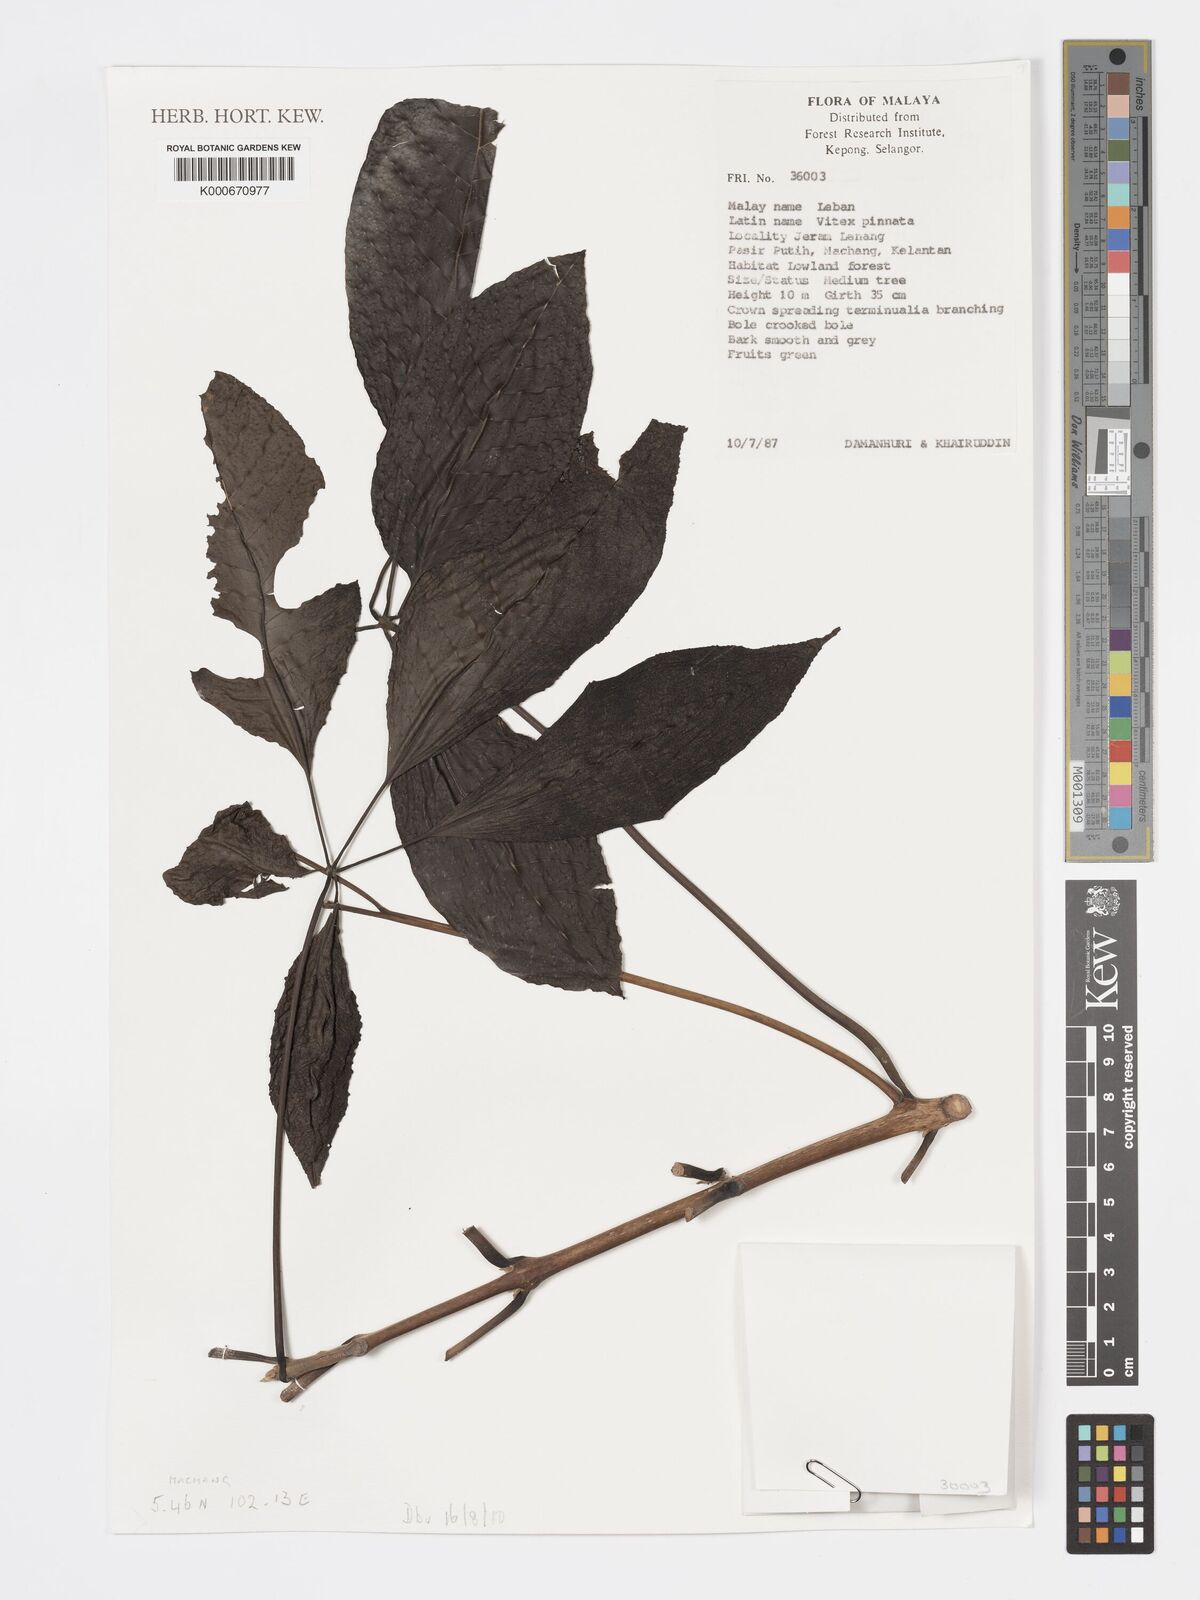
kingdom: Plantae
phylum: Tracheophyta
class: Magnoliopsida
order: Lamiales
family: Lamiaceae
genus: Vitex
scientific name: Vitex pinnata
